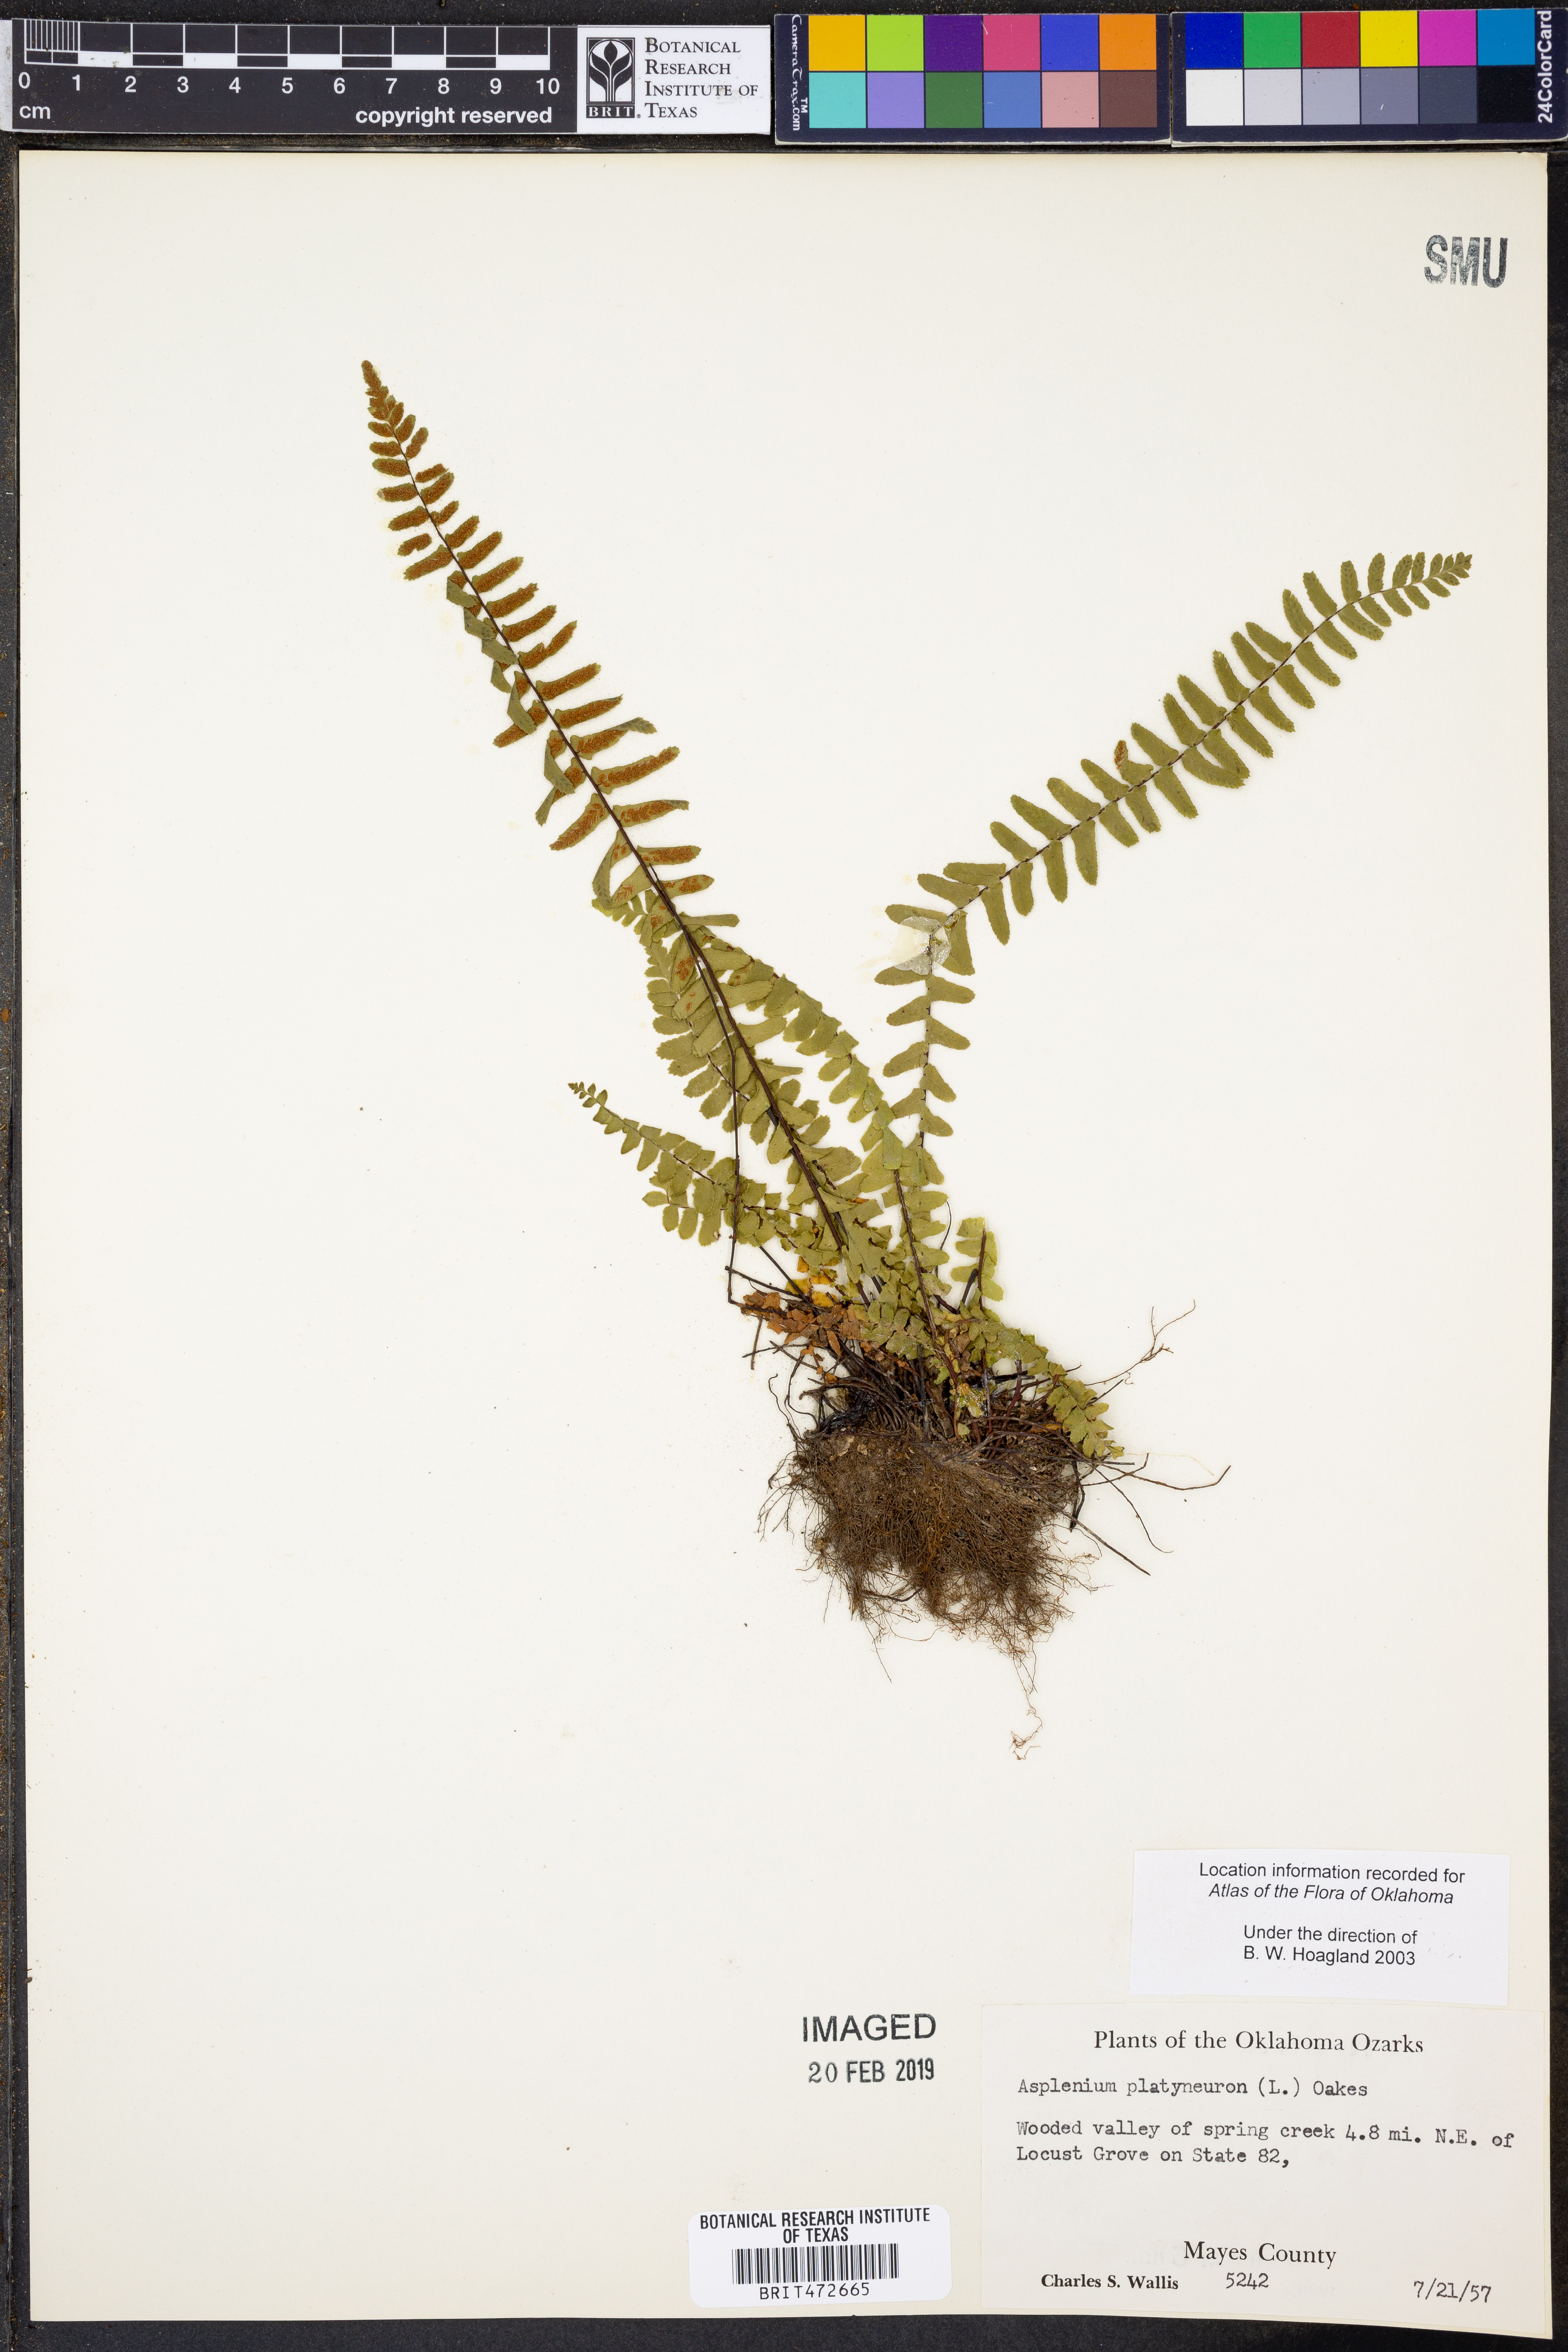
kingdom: Plantae
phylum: Tracheophyta
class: Polypodiopsida
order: Polypodiales
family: Aspleniaceae
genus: Asplenium
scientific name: Asplenium platyneuron
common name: Ebony spleenwort
